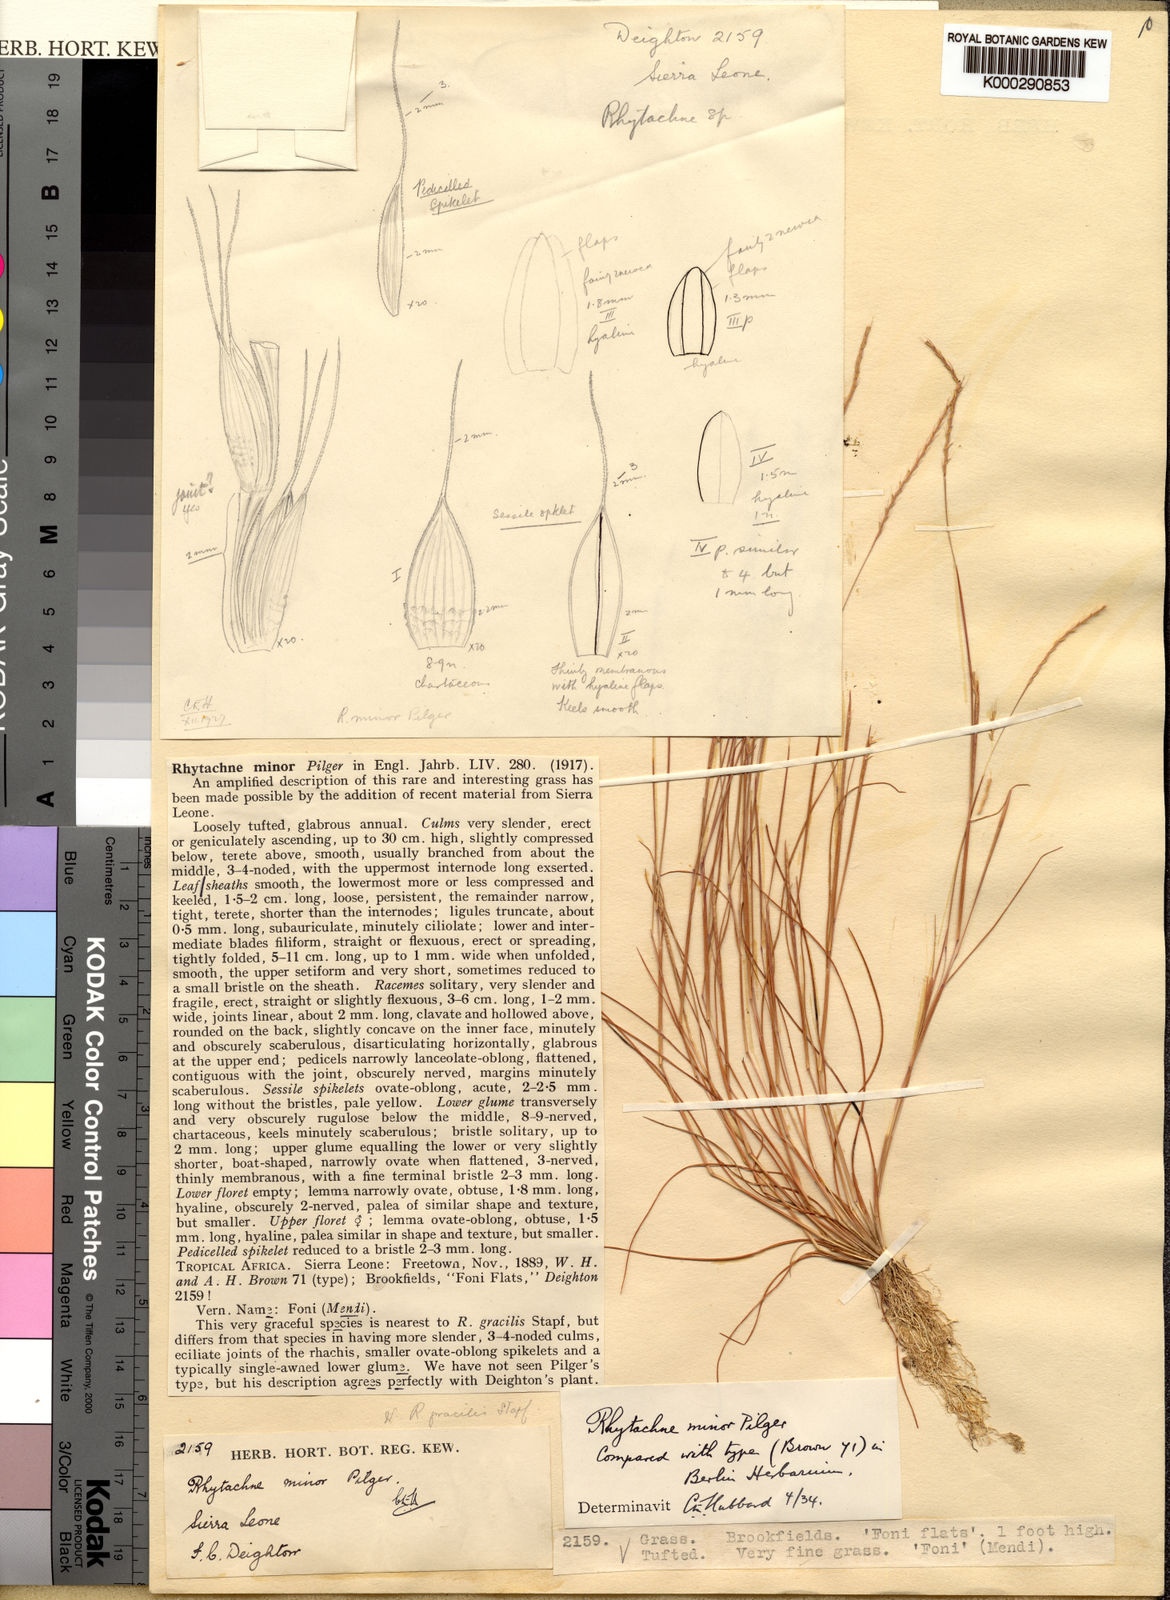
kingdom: Plantae
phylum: Tracheophyta
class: Liliopsida
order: Poales
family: Poaceae
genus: Rhytachne
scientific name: Rhytachne gracilis
